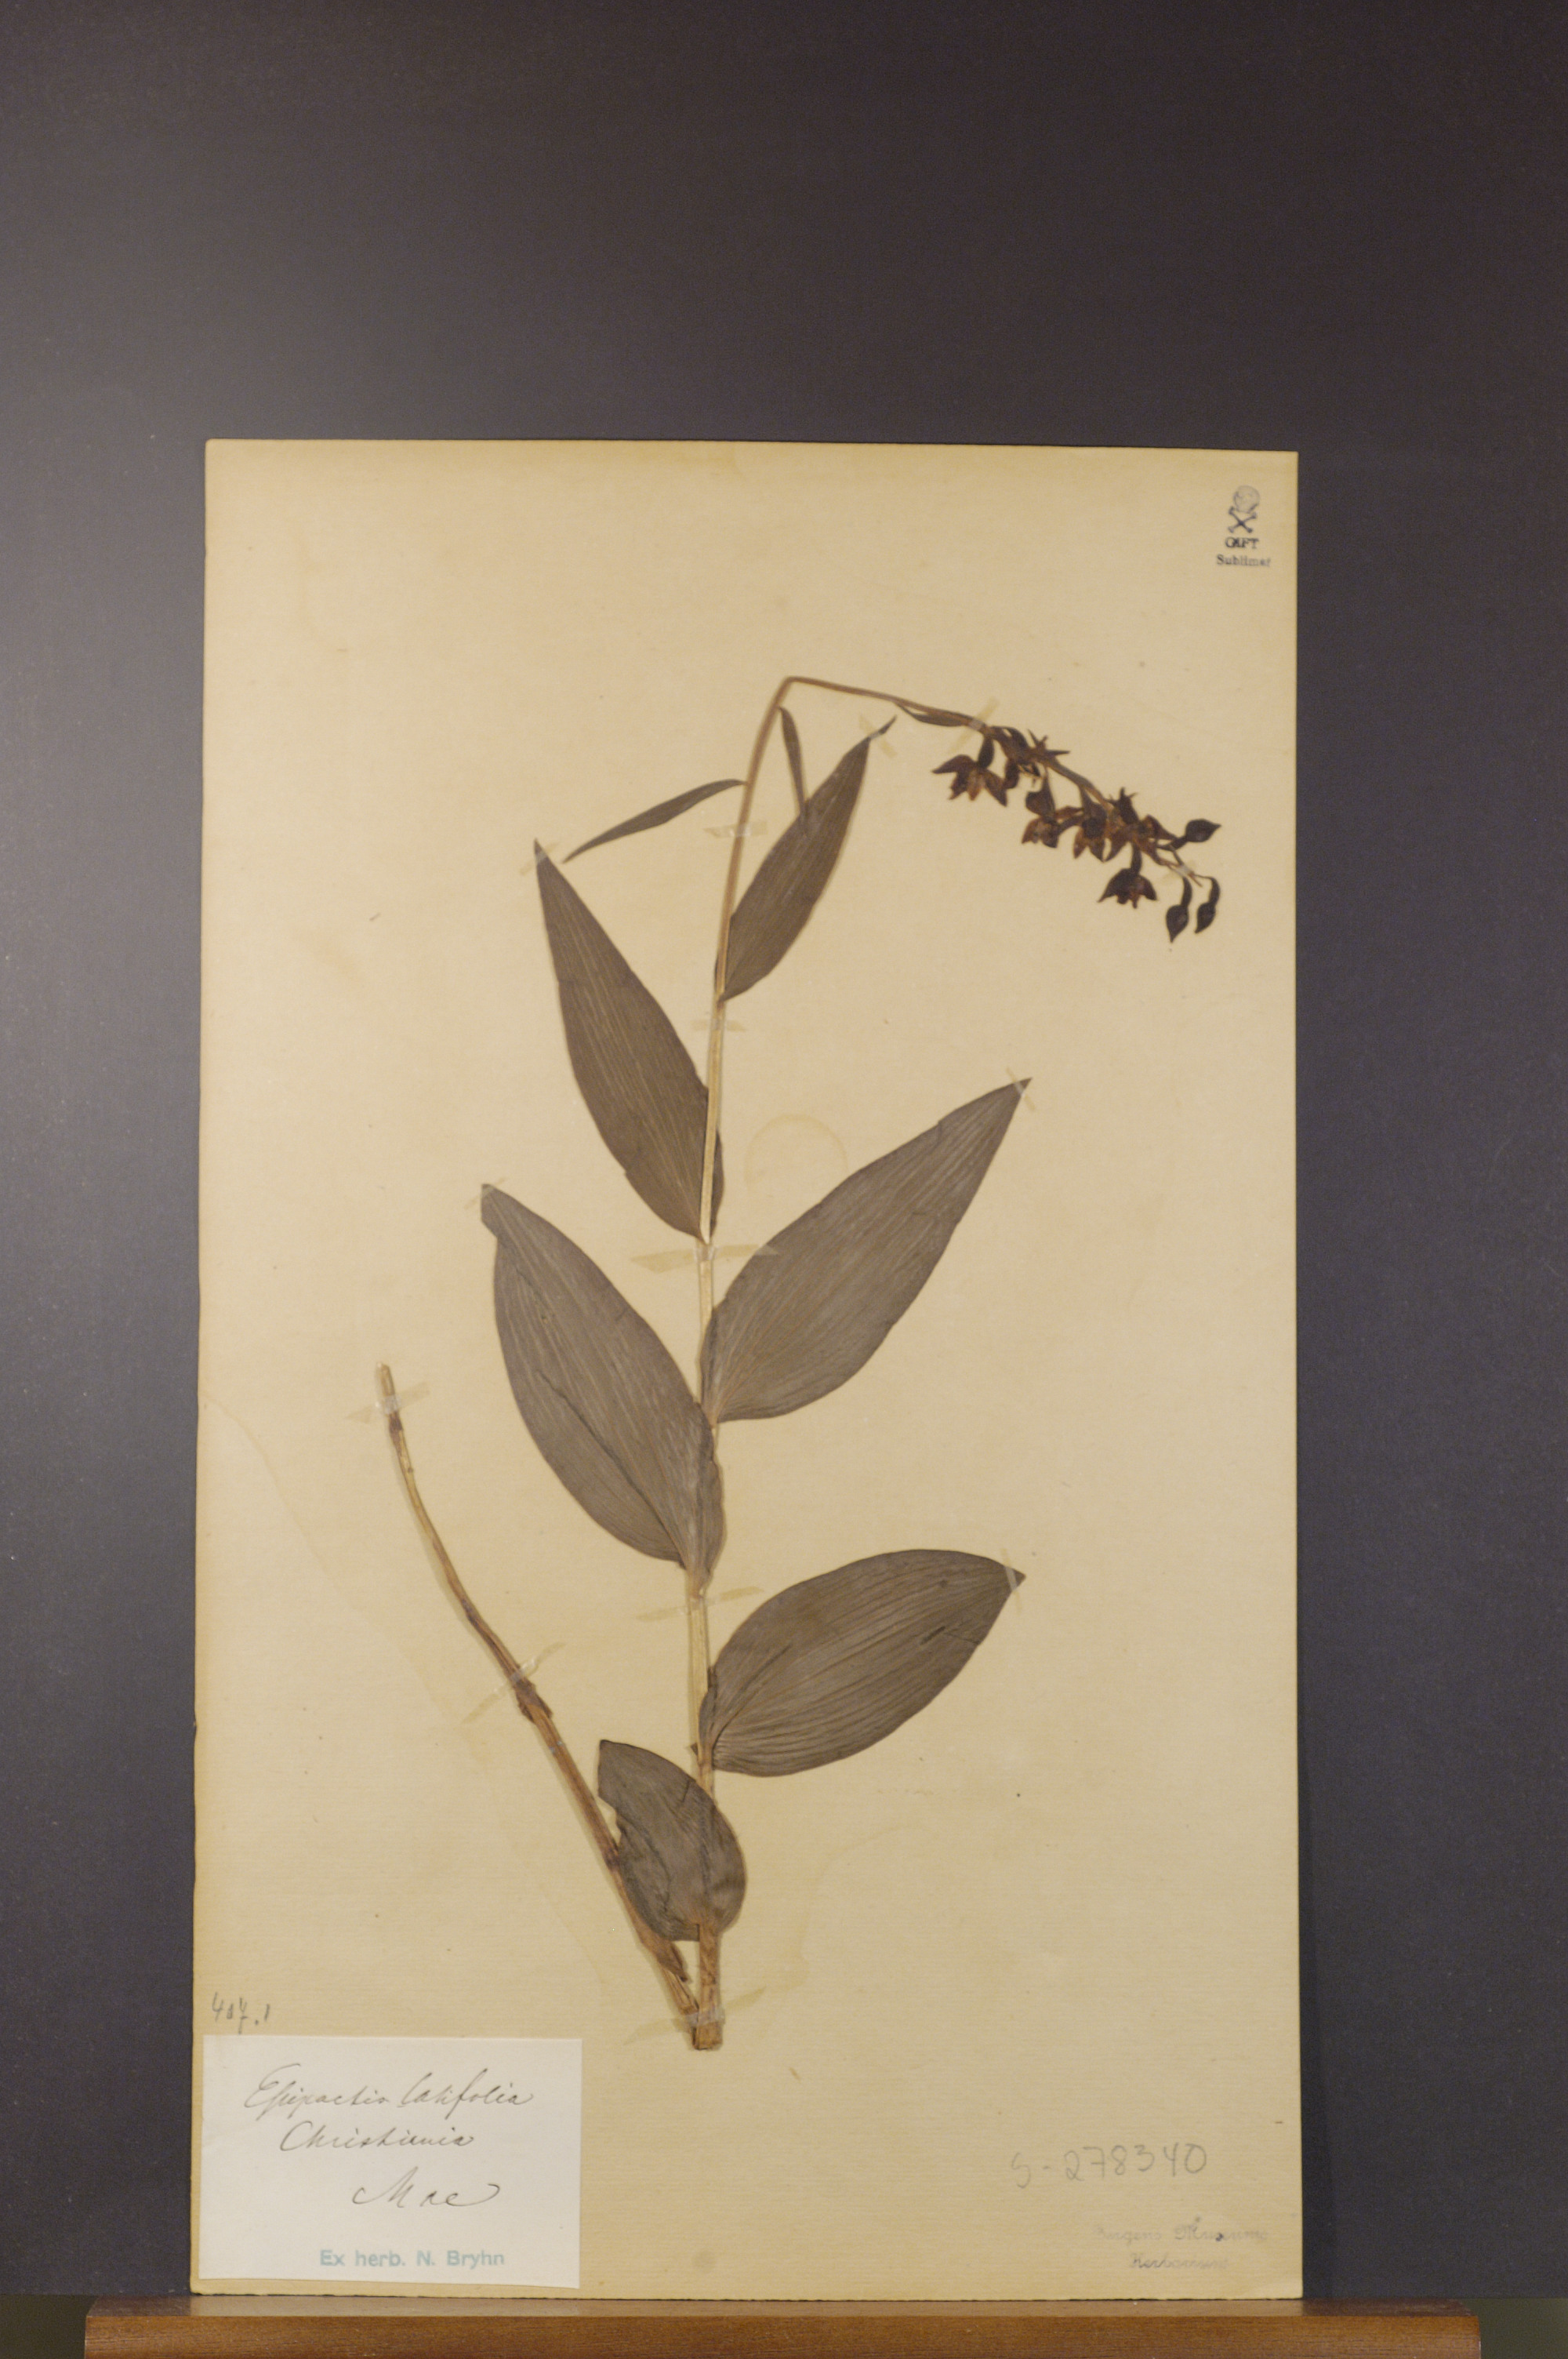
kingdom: Plantae
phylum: Tracheophyta
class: Liliopsida
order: Asparagales
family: Orchidaceae
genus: Epipactis
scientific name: Epipactis helleborine
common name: Broad-leaved helleborine
